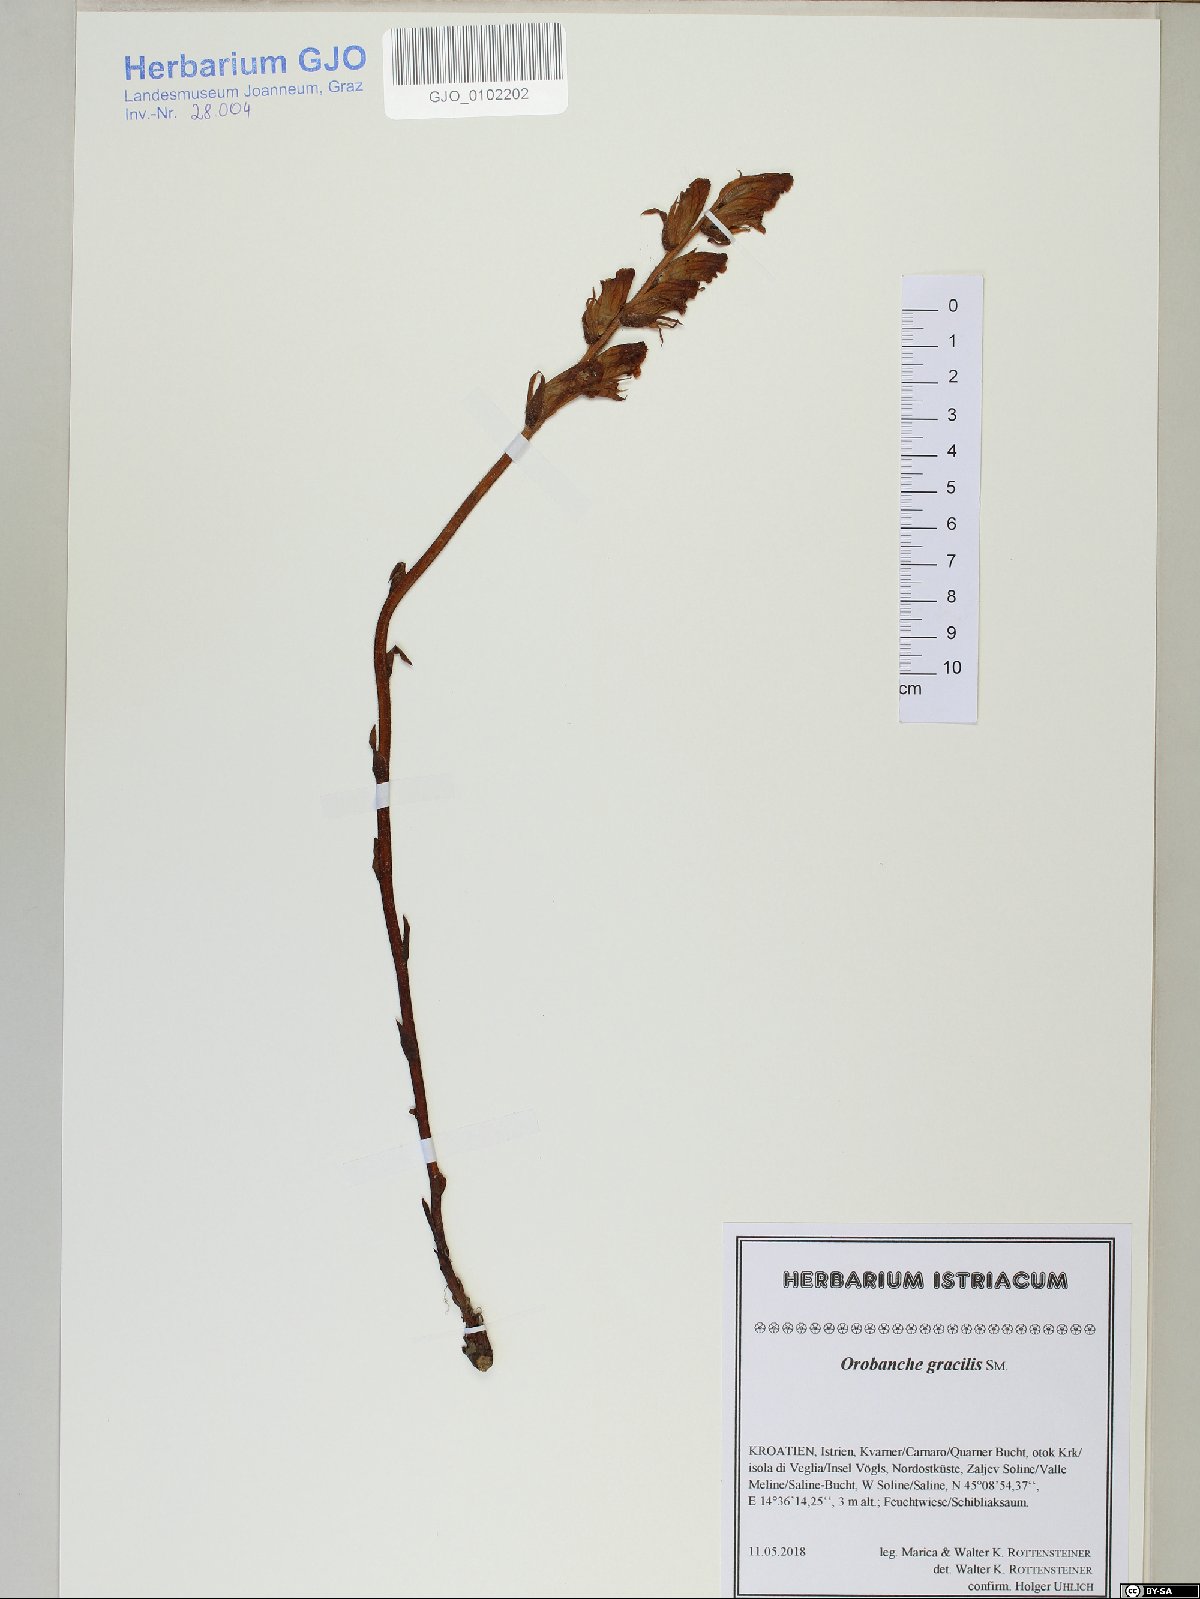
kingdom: Plantae
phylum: Tracheophyta
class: Magnoliopsida
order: Lamiales
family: Orobanchaceae
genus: Orobanche
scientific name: Orobanche gracilis
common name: Slender broomrape
